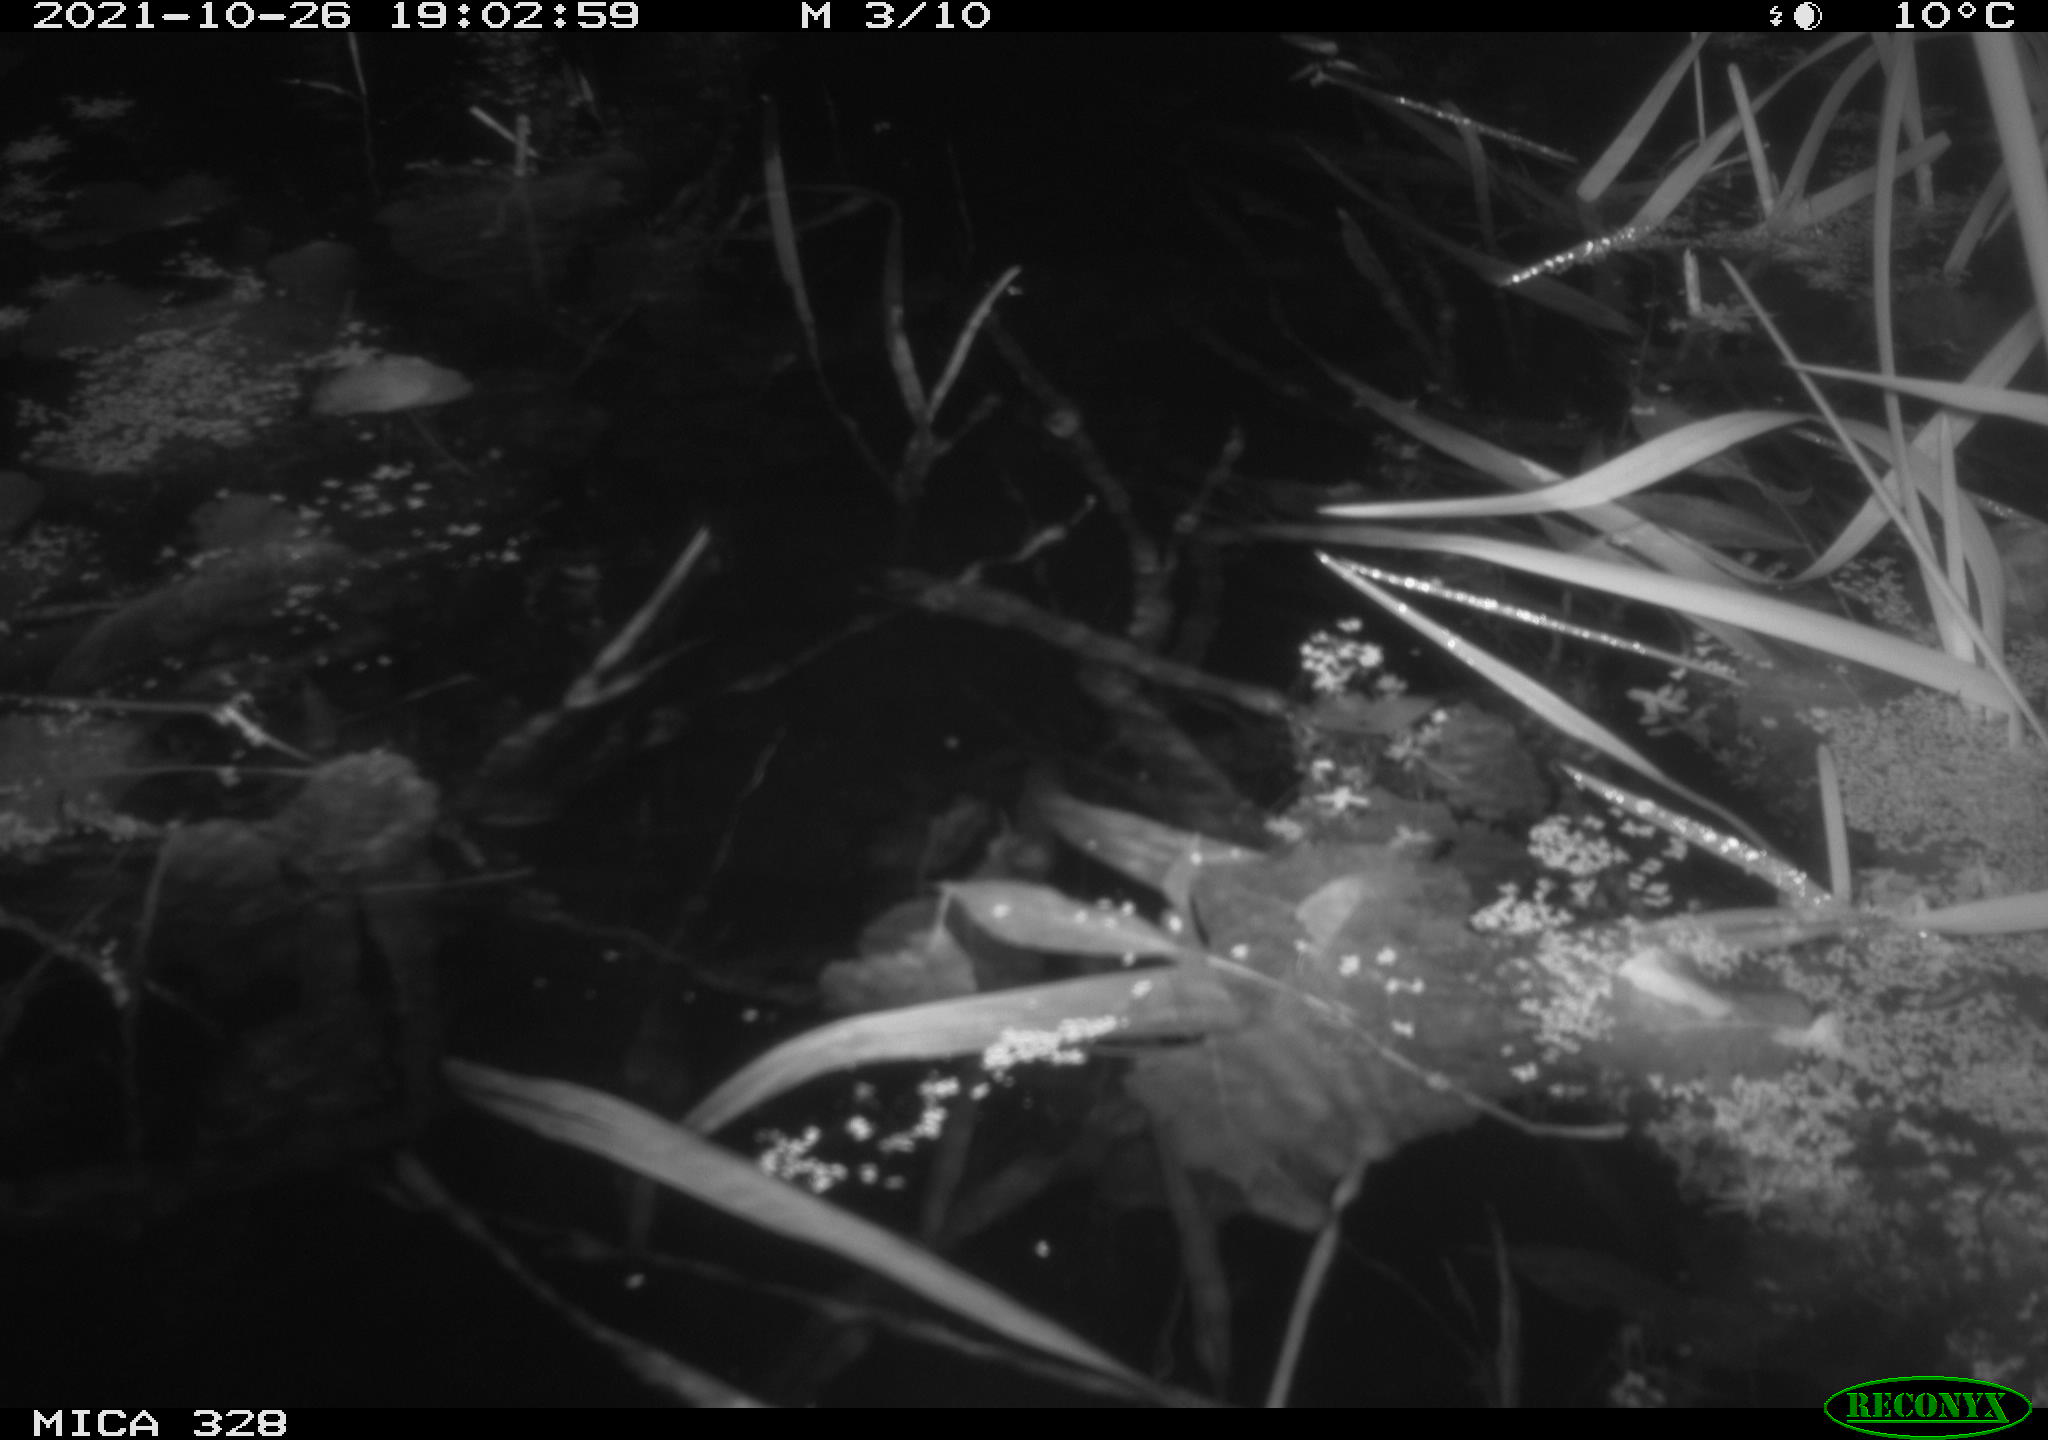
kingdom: Animalia
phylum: Chordata
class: Mammalia
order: Rodentia
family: Cricetidae
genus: Ondatra
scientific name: Ondatra zibethicus
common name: Muskrat
